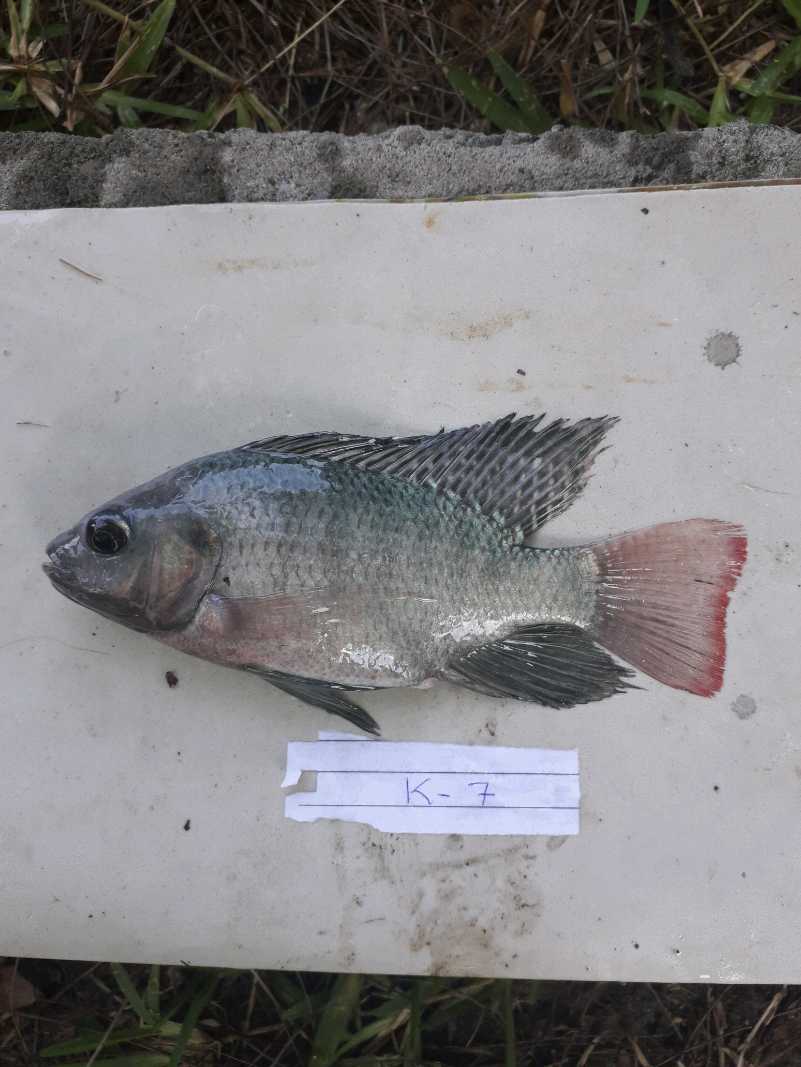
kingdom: Animalia
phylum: Chordata
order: Perciformes
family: Cichlidae
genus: Oreochromis
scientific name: Oreochromis niloticus
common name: Nile tilapia
